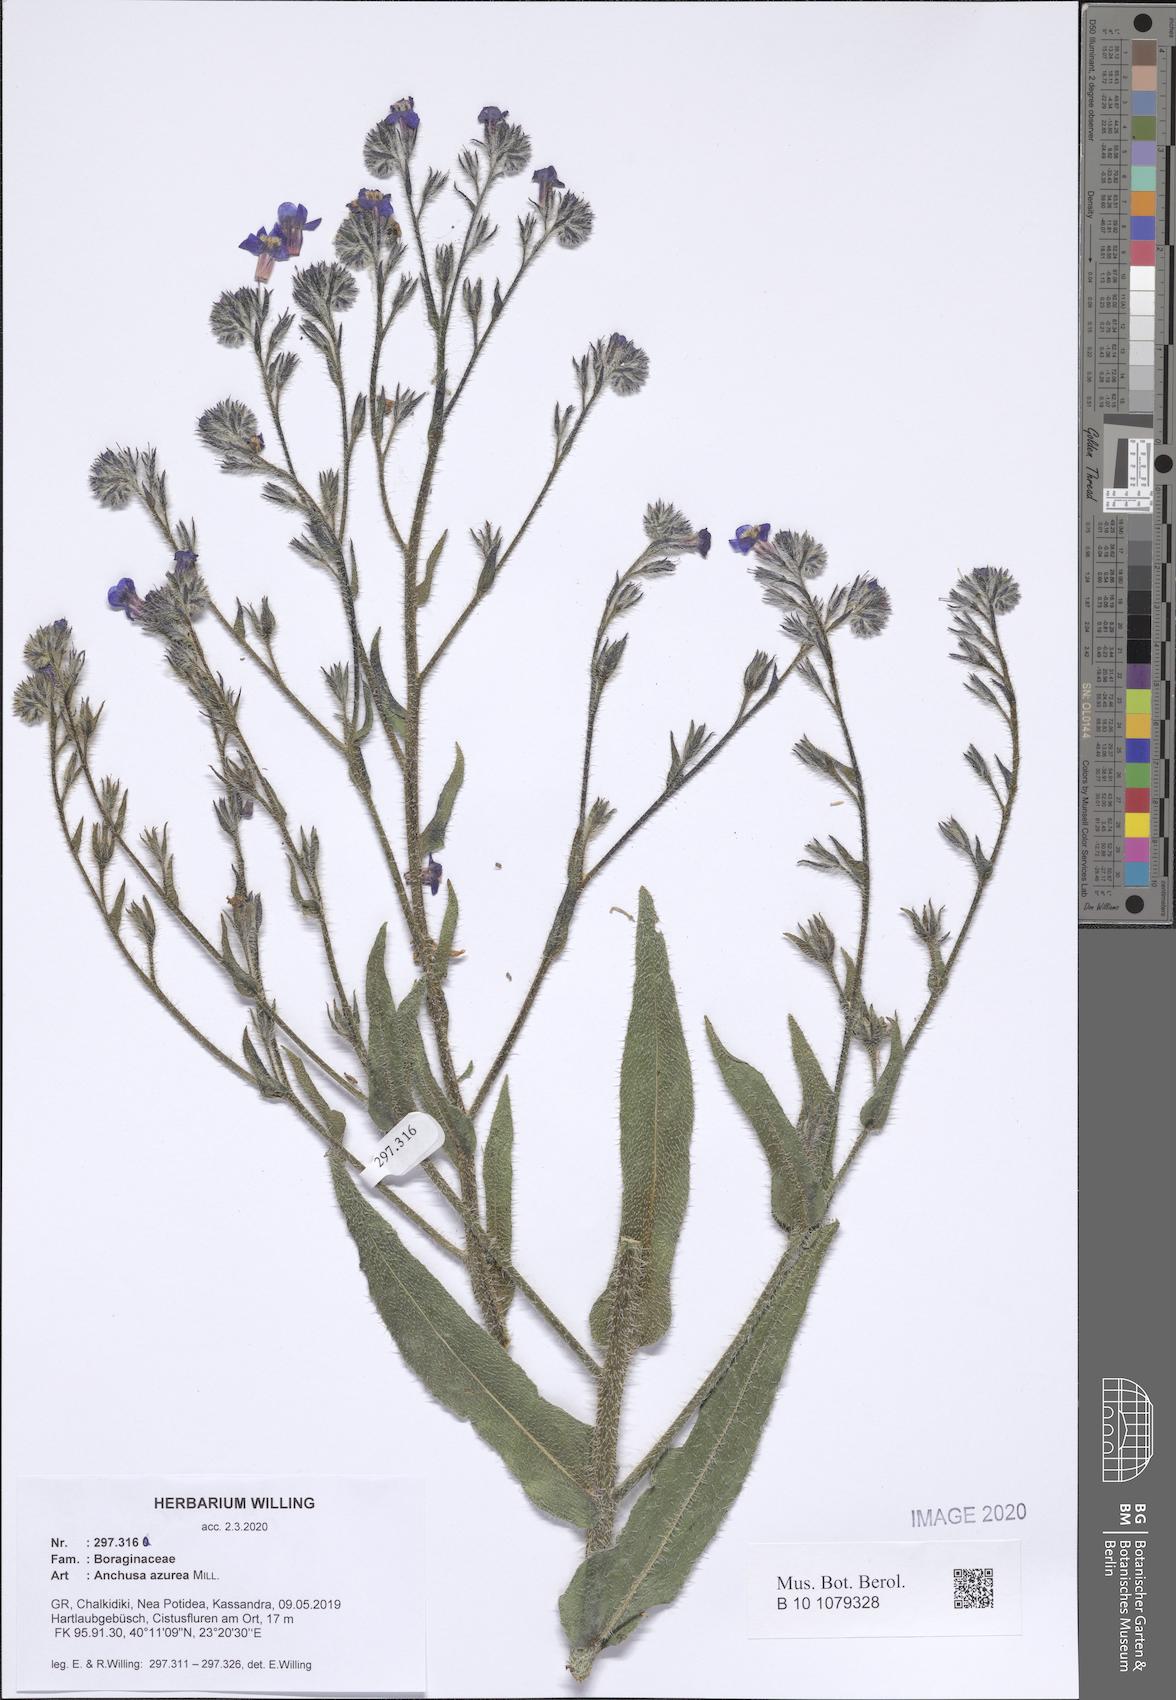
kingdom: Plantae
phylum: Tracheophyta
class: Magnoliopsida
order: Boraginales
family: Boraginaceae
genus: Anchusa
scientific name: Anchusa azurea
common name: Garden anchusa
